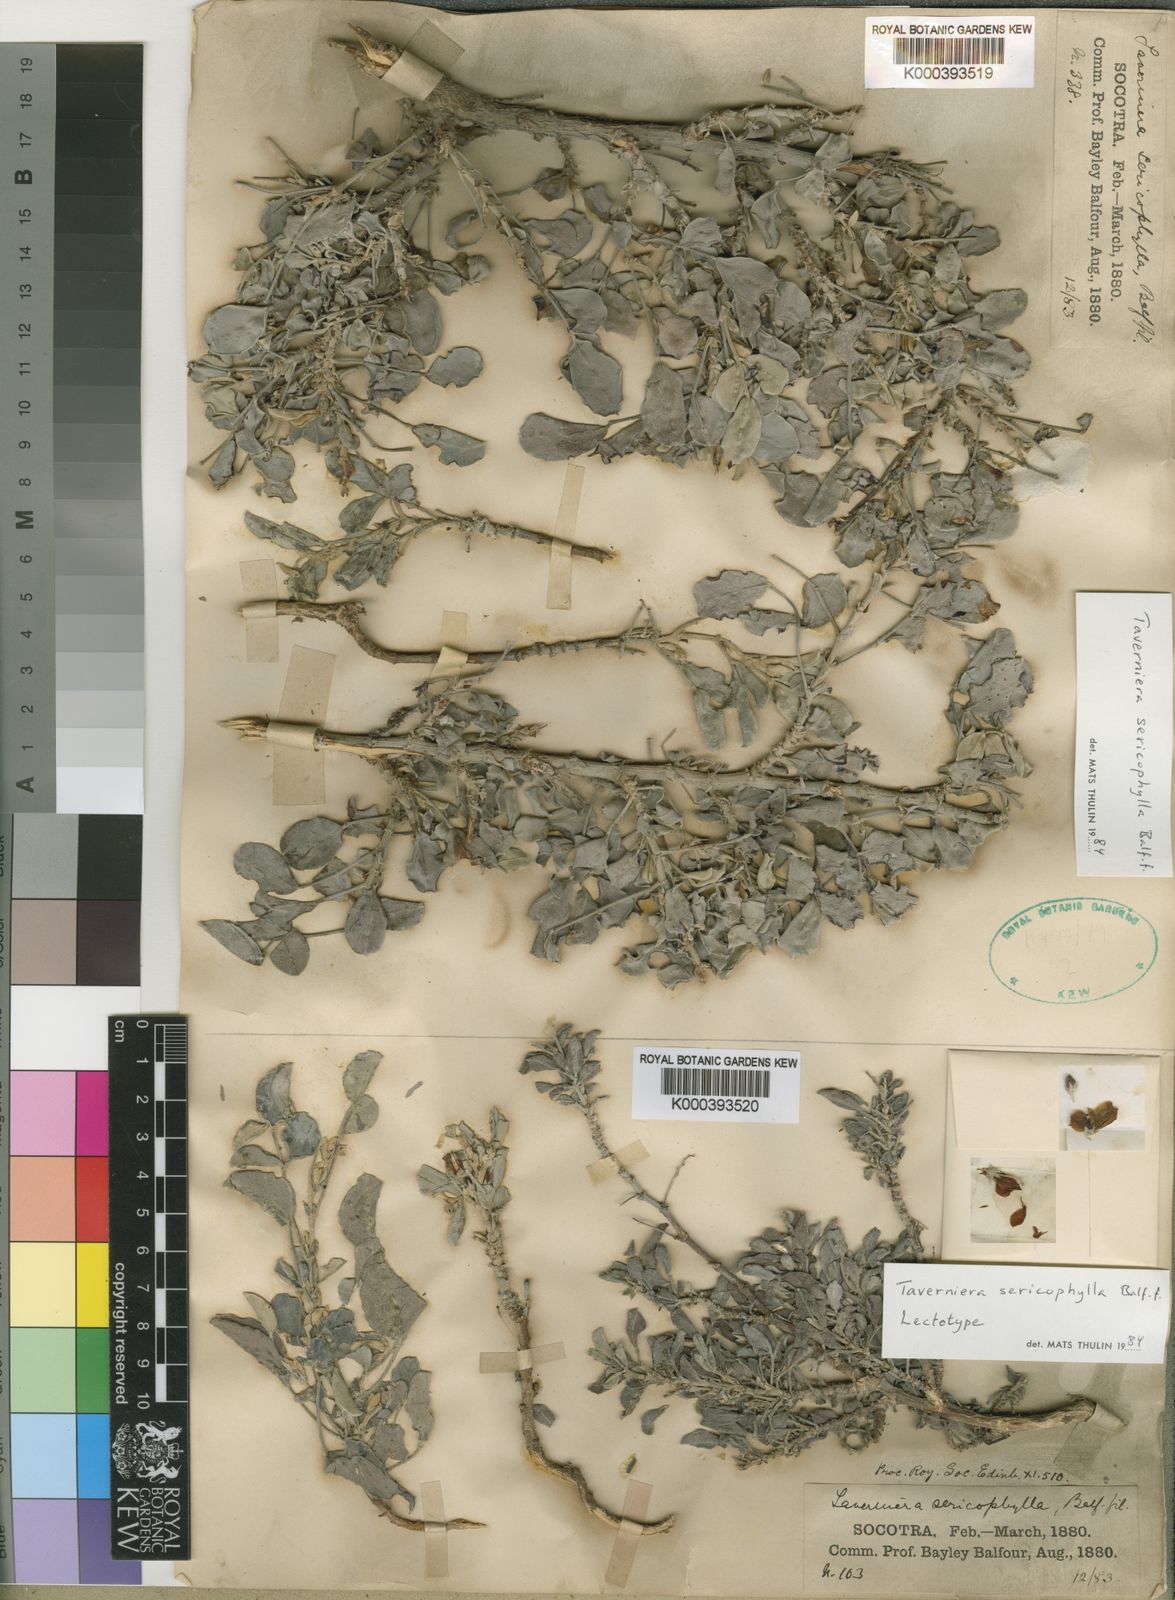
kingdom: Plantae
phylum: Tracheophyta
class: Magnoliopsida
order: Fabales
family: Fabaceae
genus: Taverniera
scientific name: Taverniera sericophylla
